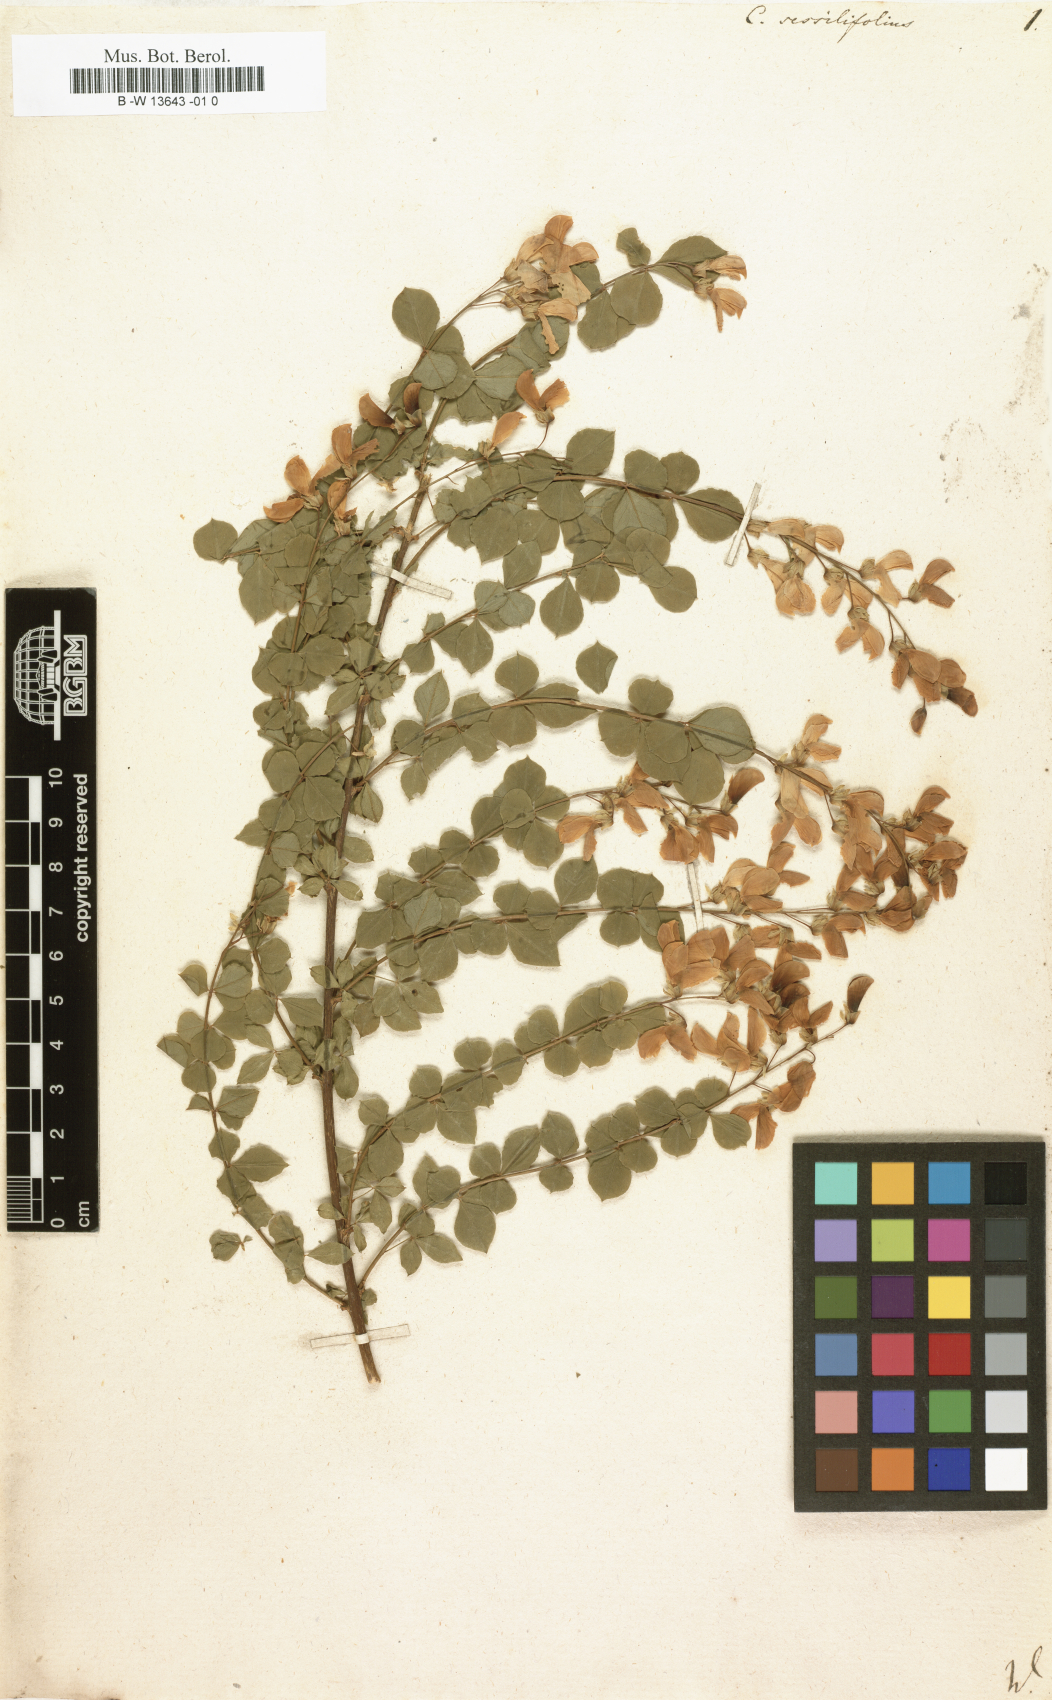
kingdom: Plantae
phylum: Tracheophyta
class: Magnoliopsida
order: Fabales
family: Fabaceae
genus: Cytisophyllum
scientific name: Cytisophyllum sessilifolium
